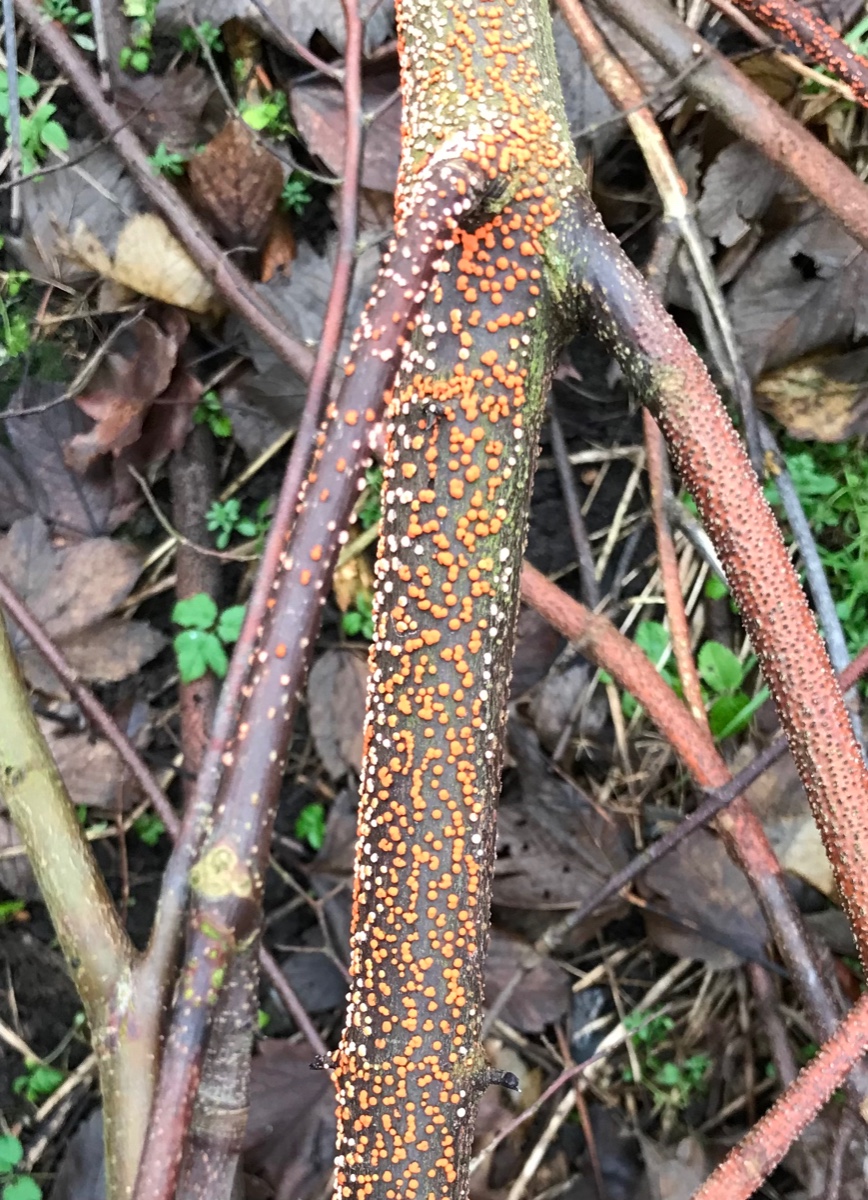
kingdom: Fungi
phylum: Ascomycota
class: Sordariomycetes
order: Hypocreales
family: Nectriaceae
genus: Nectria
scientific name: Nectria cinnabarina
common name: almindelig cinnobersvamp
